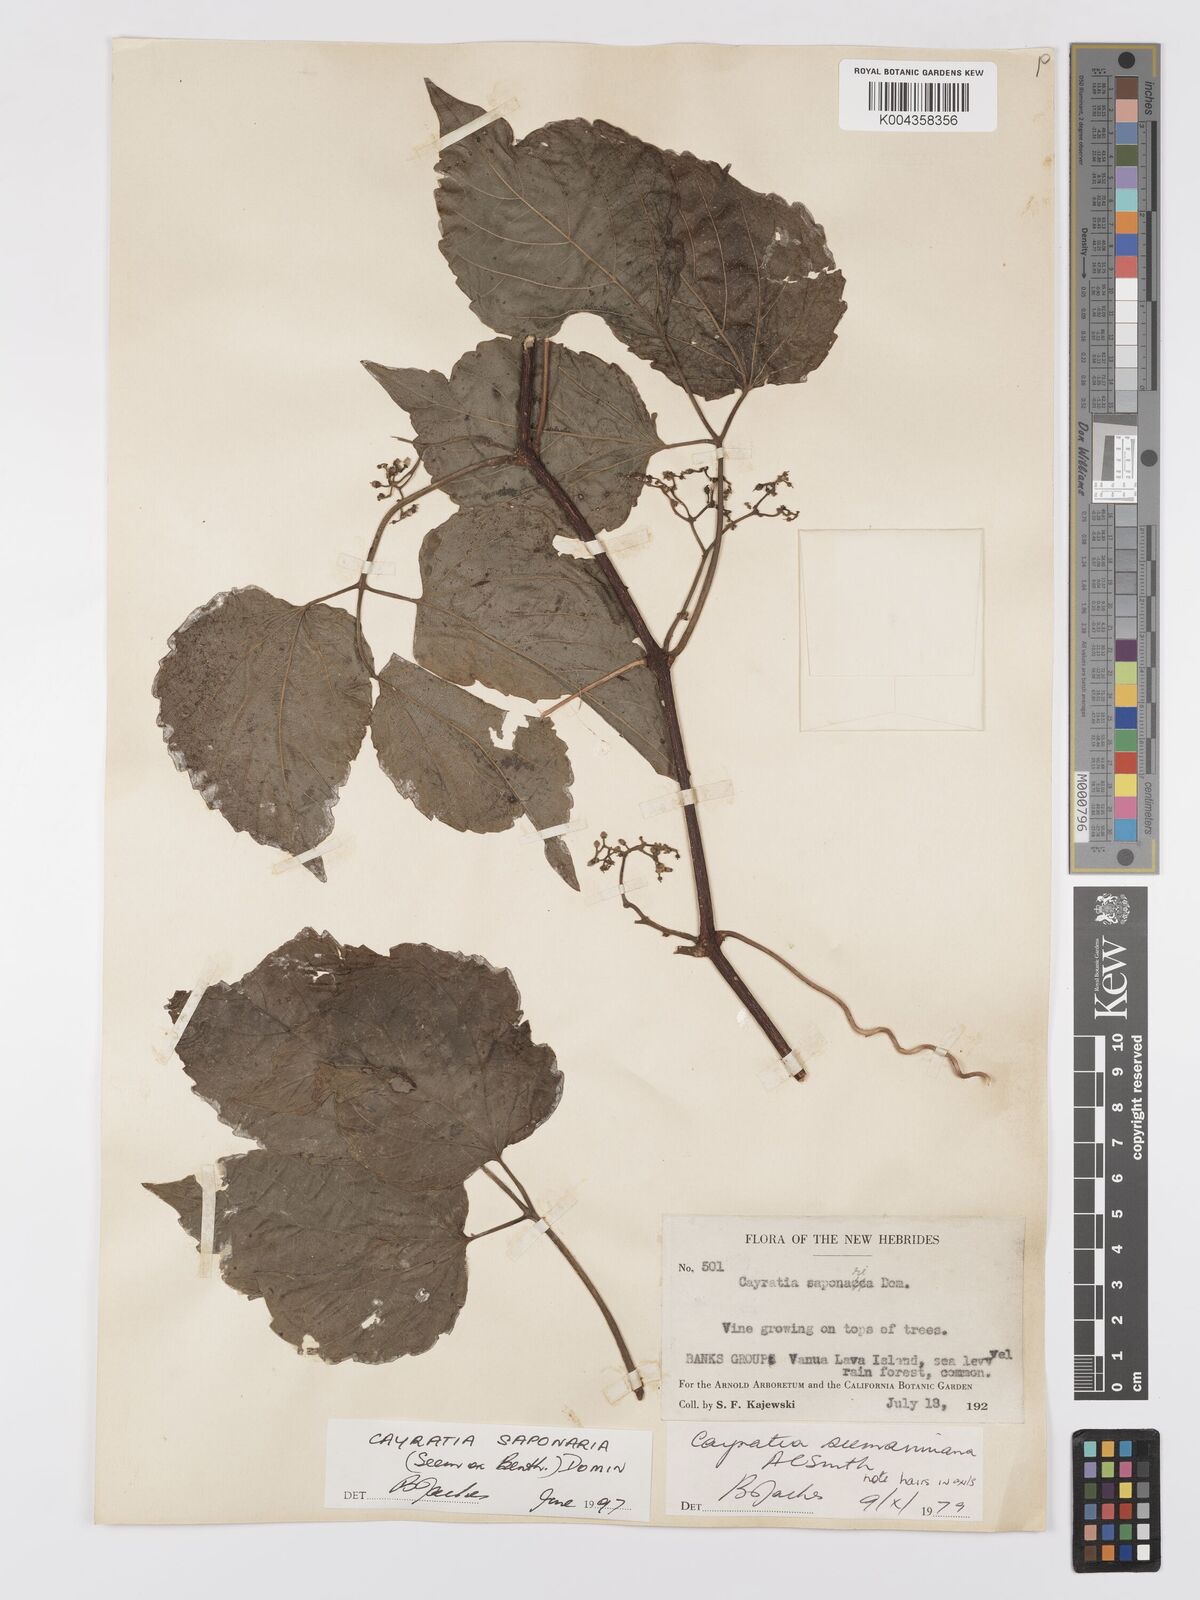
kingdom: Plantae
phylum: Tracheophyta
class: Magnoliopsida
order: Vitales
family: Vitaceae
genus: Cayratia
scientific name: Cayratia saponaria
